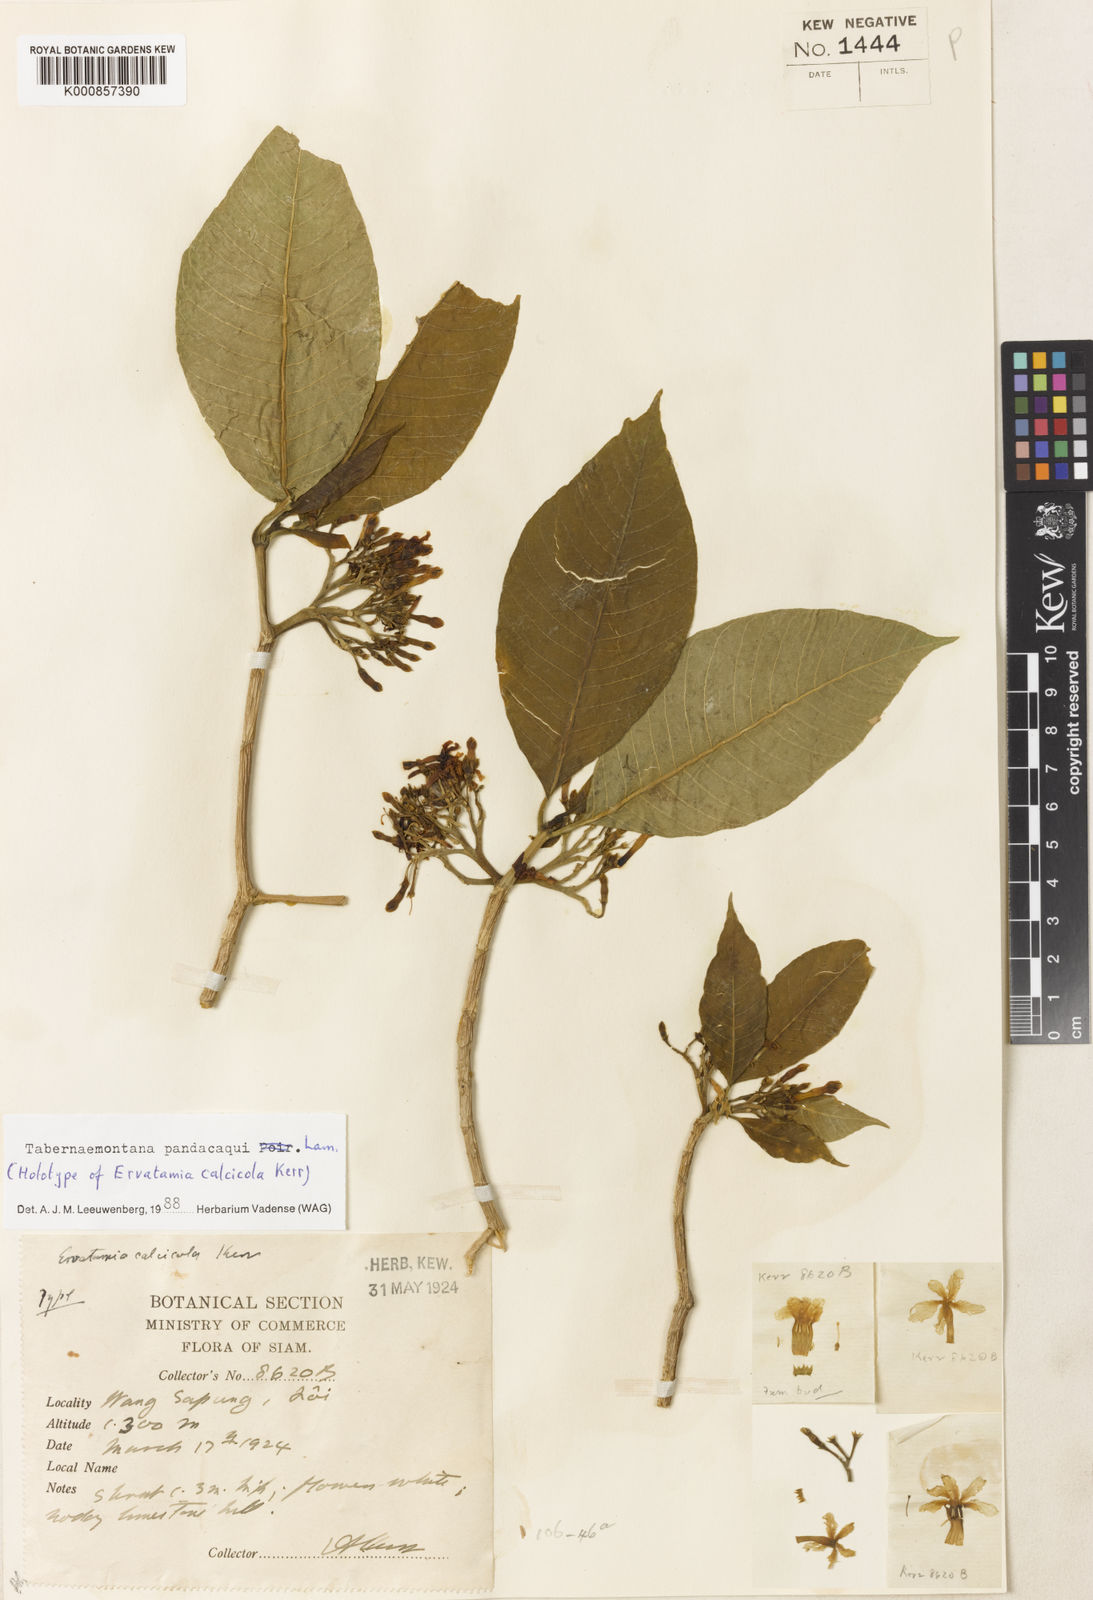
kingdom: Plantae
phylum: Tracheophyta
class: Magnoliopsida
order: Gentianales
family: Apocynaceae
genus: Tabernaemontana
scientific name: Tabernaemontana
